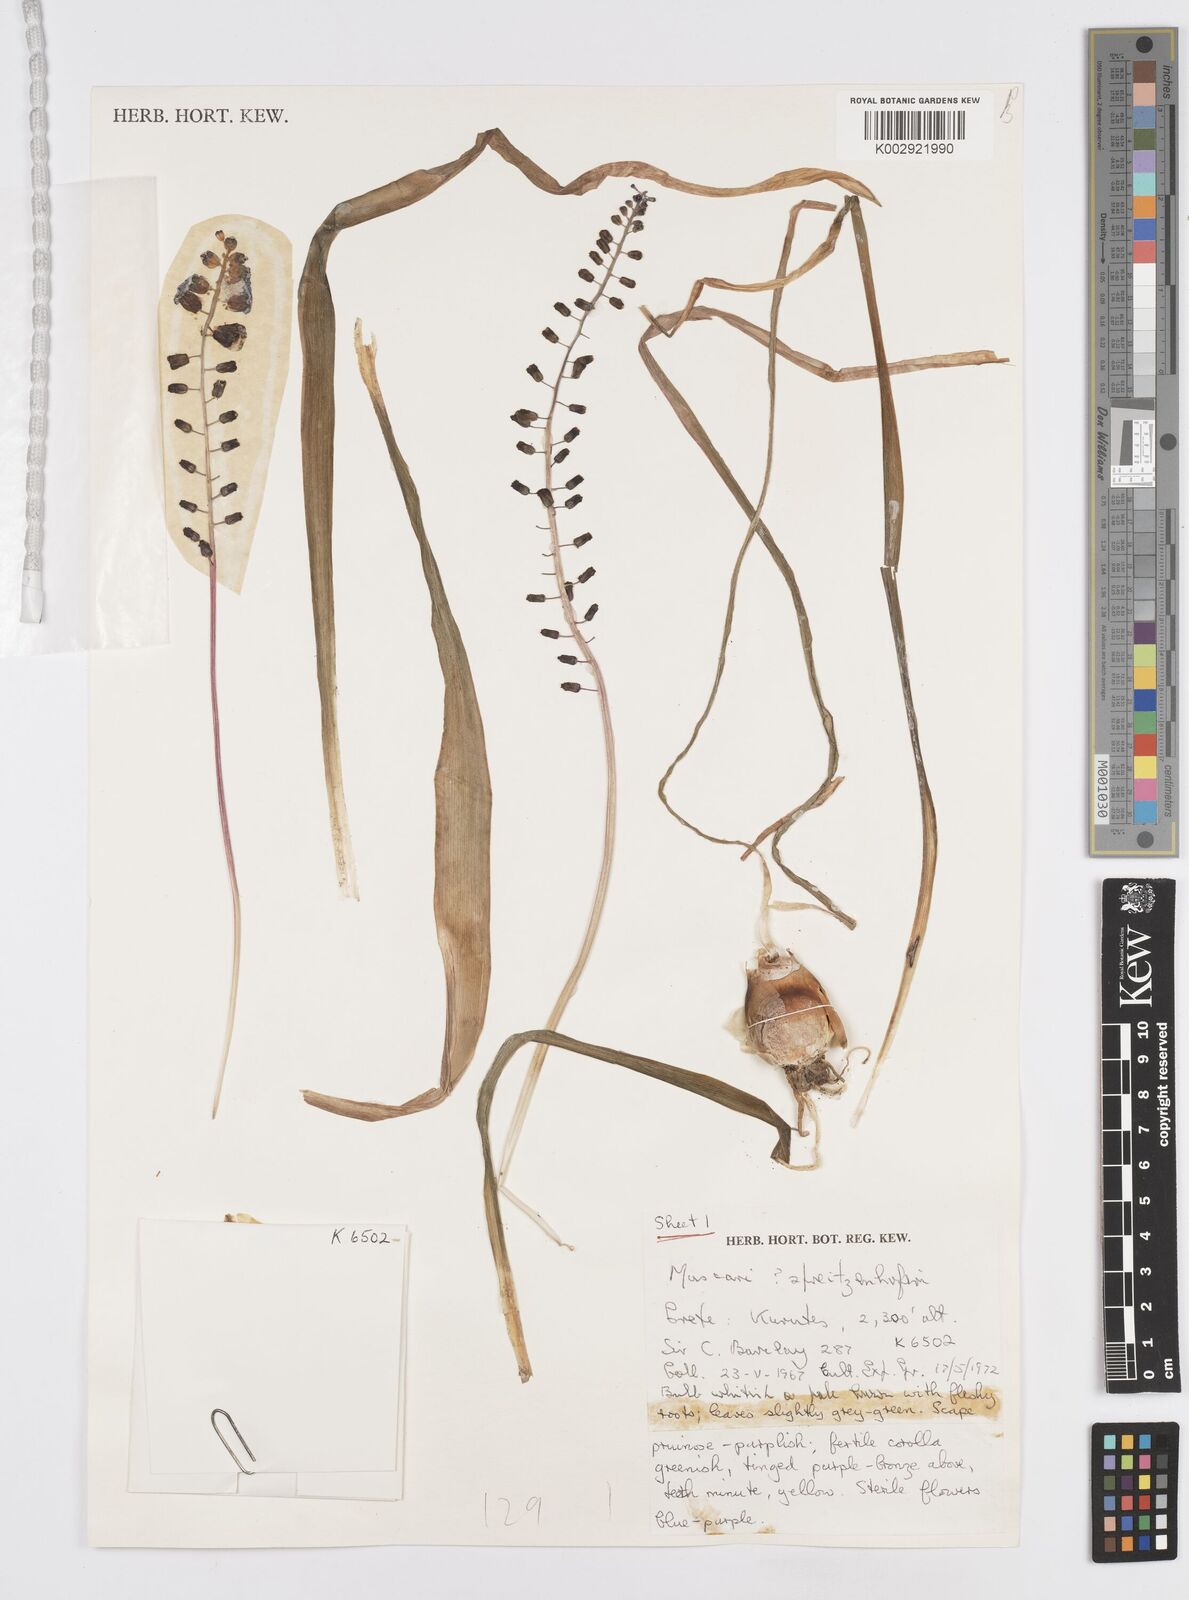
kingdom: Plantae
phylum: Tracheophyta
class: Liliopsida
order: Asparagales
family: Asparagaceae
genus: Muscari
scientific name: Muscari spreitzenhoferi
